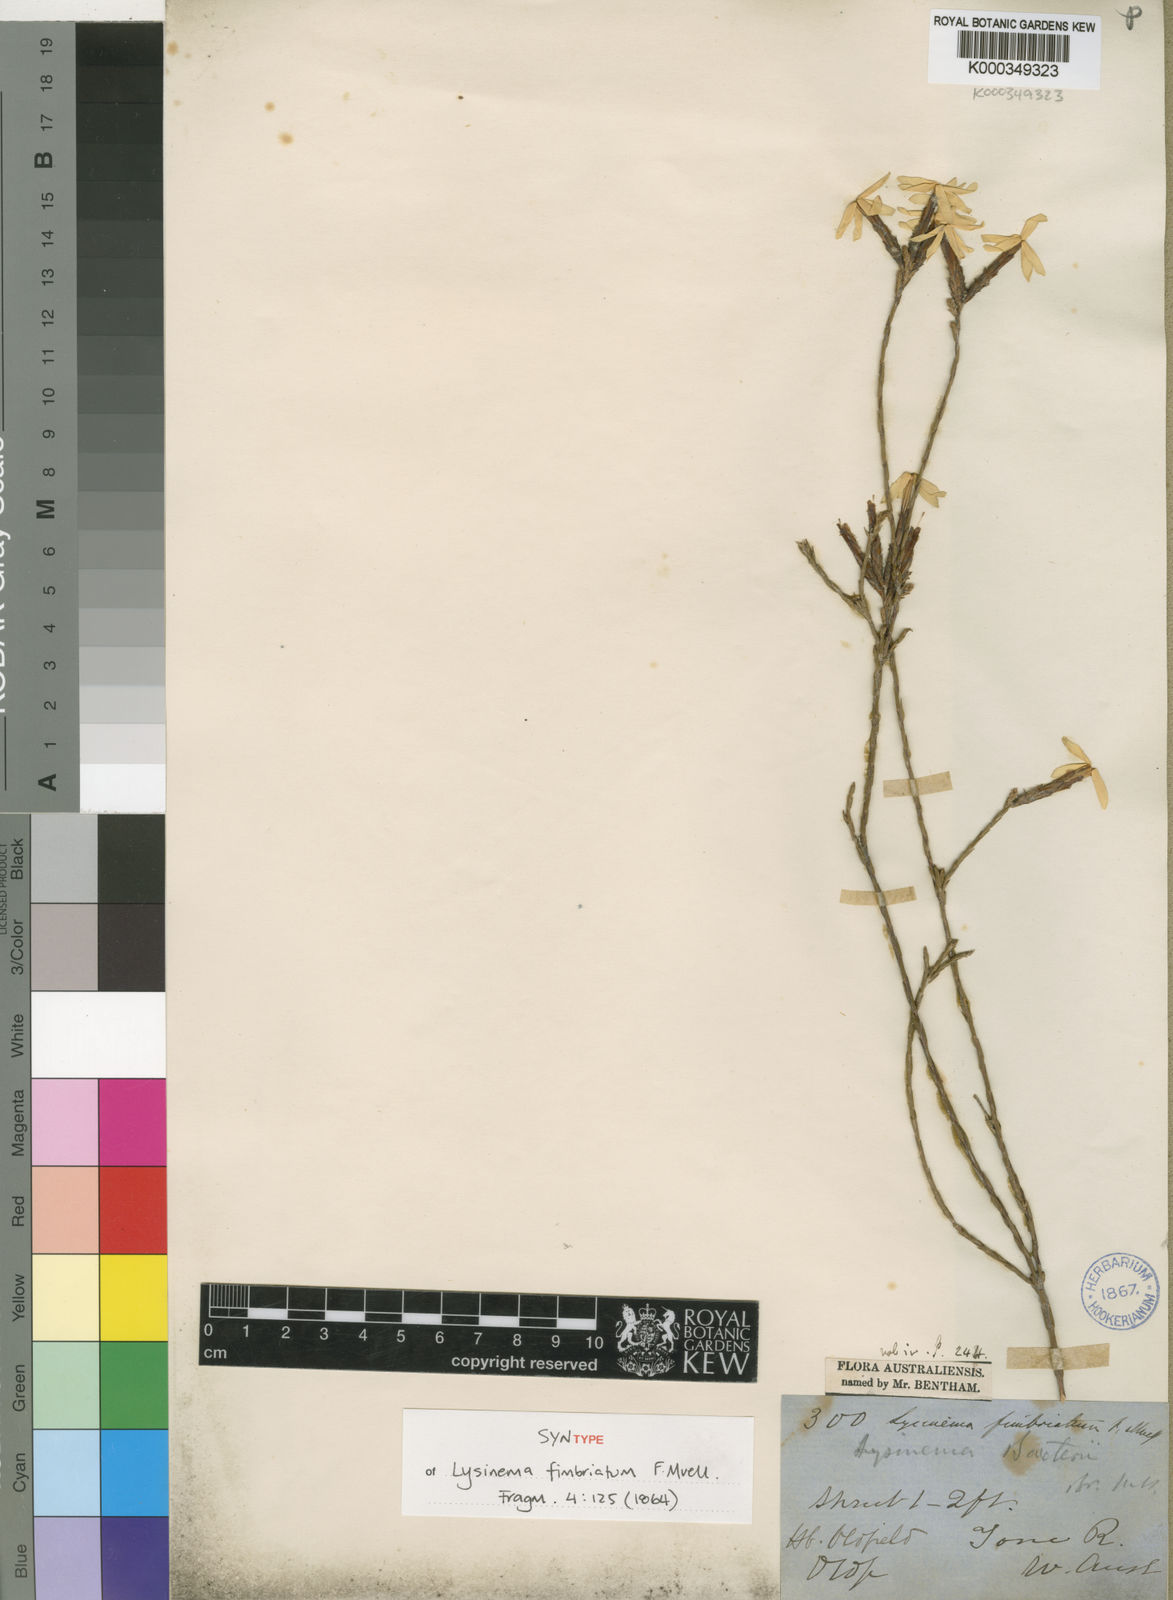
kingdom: Plantae
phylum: Tracheophyta
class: Magnoliopsida
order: Ericales
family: Ericaceae
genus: Lysinema
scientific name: Lysinema fimbriatum
